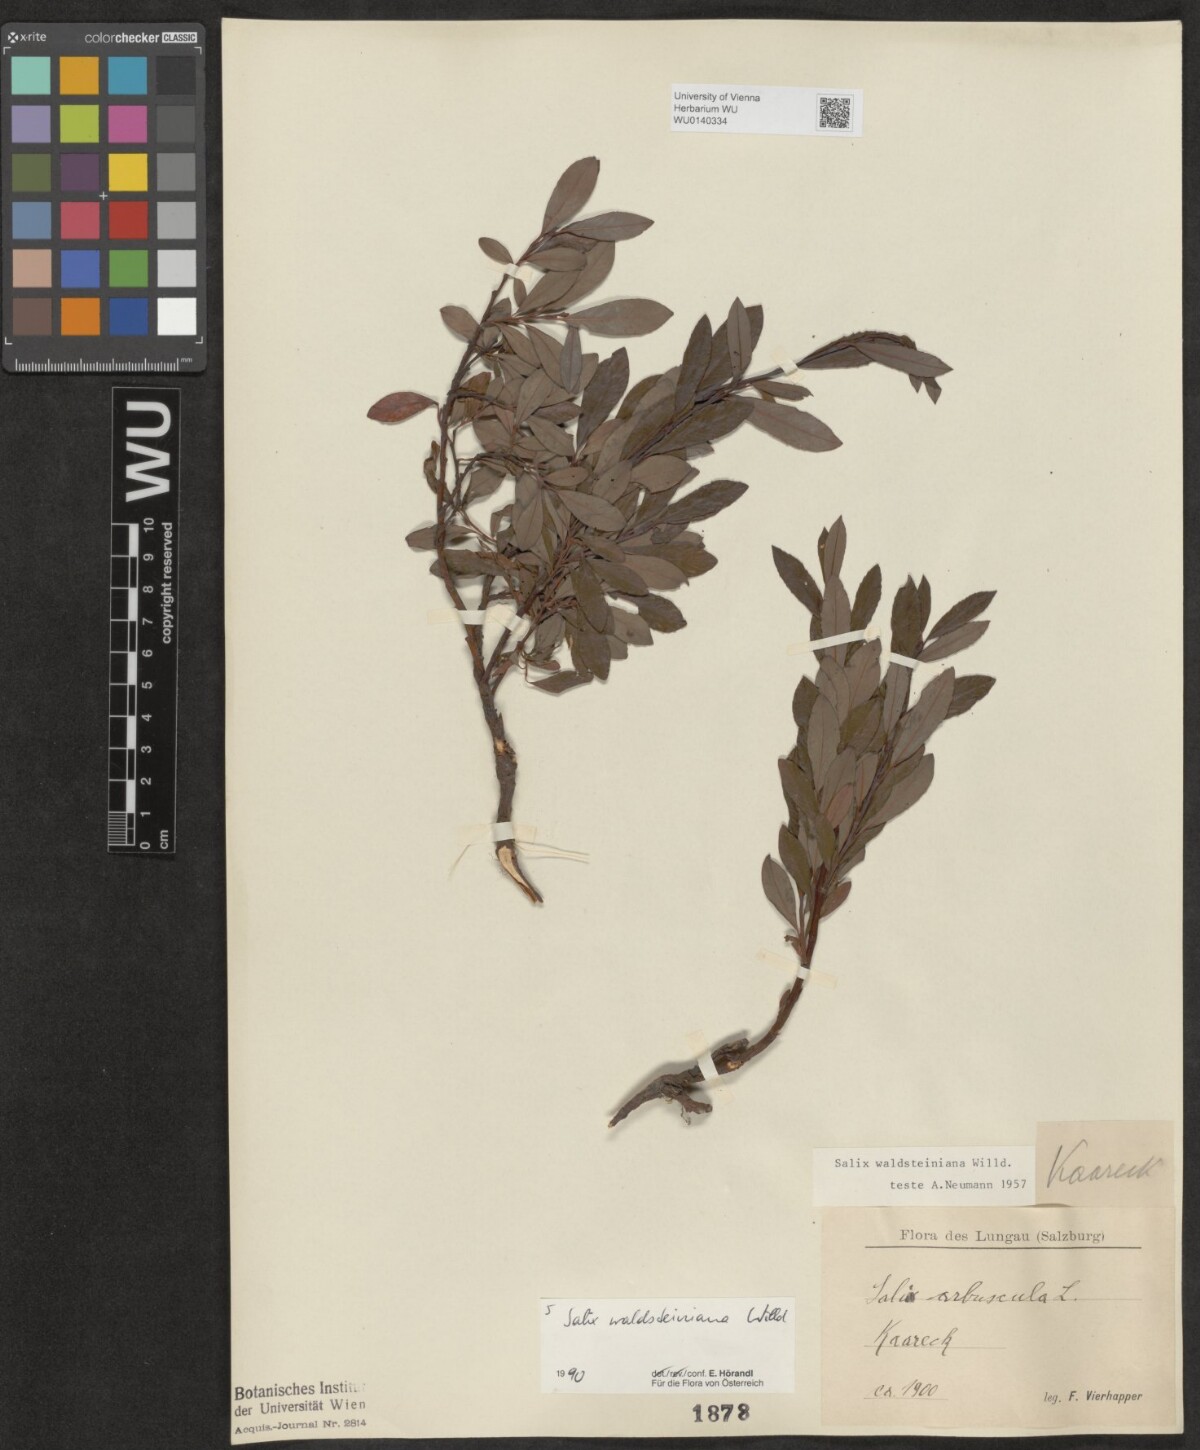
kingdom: Plantae
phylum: Tracheophyta
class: Magnoliopsida
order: Malpighiales
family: Salicaceae
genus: Salix
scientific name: Salix waldsteiniana
